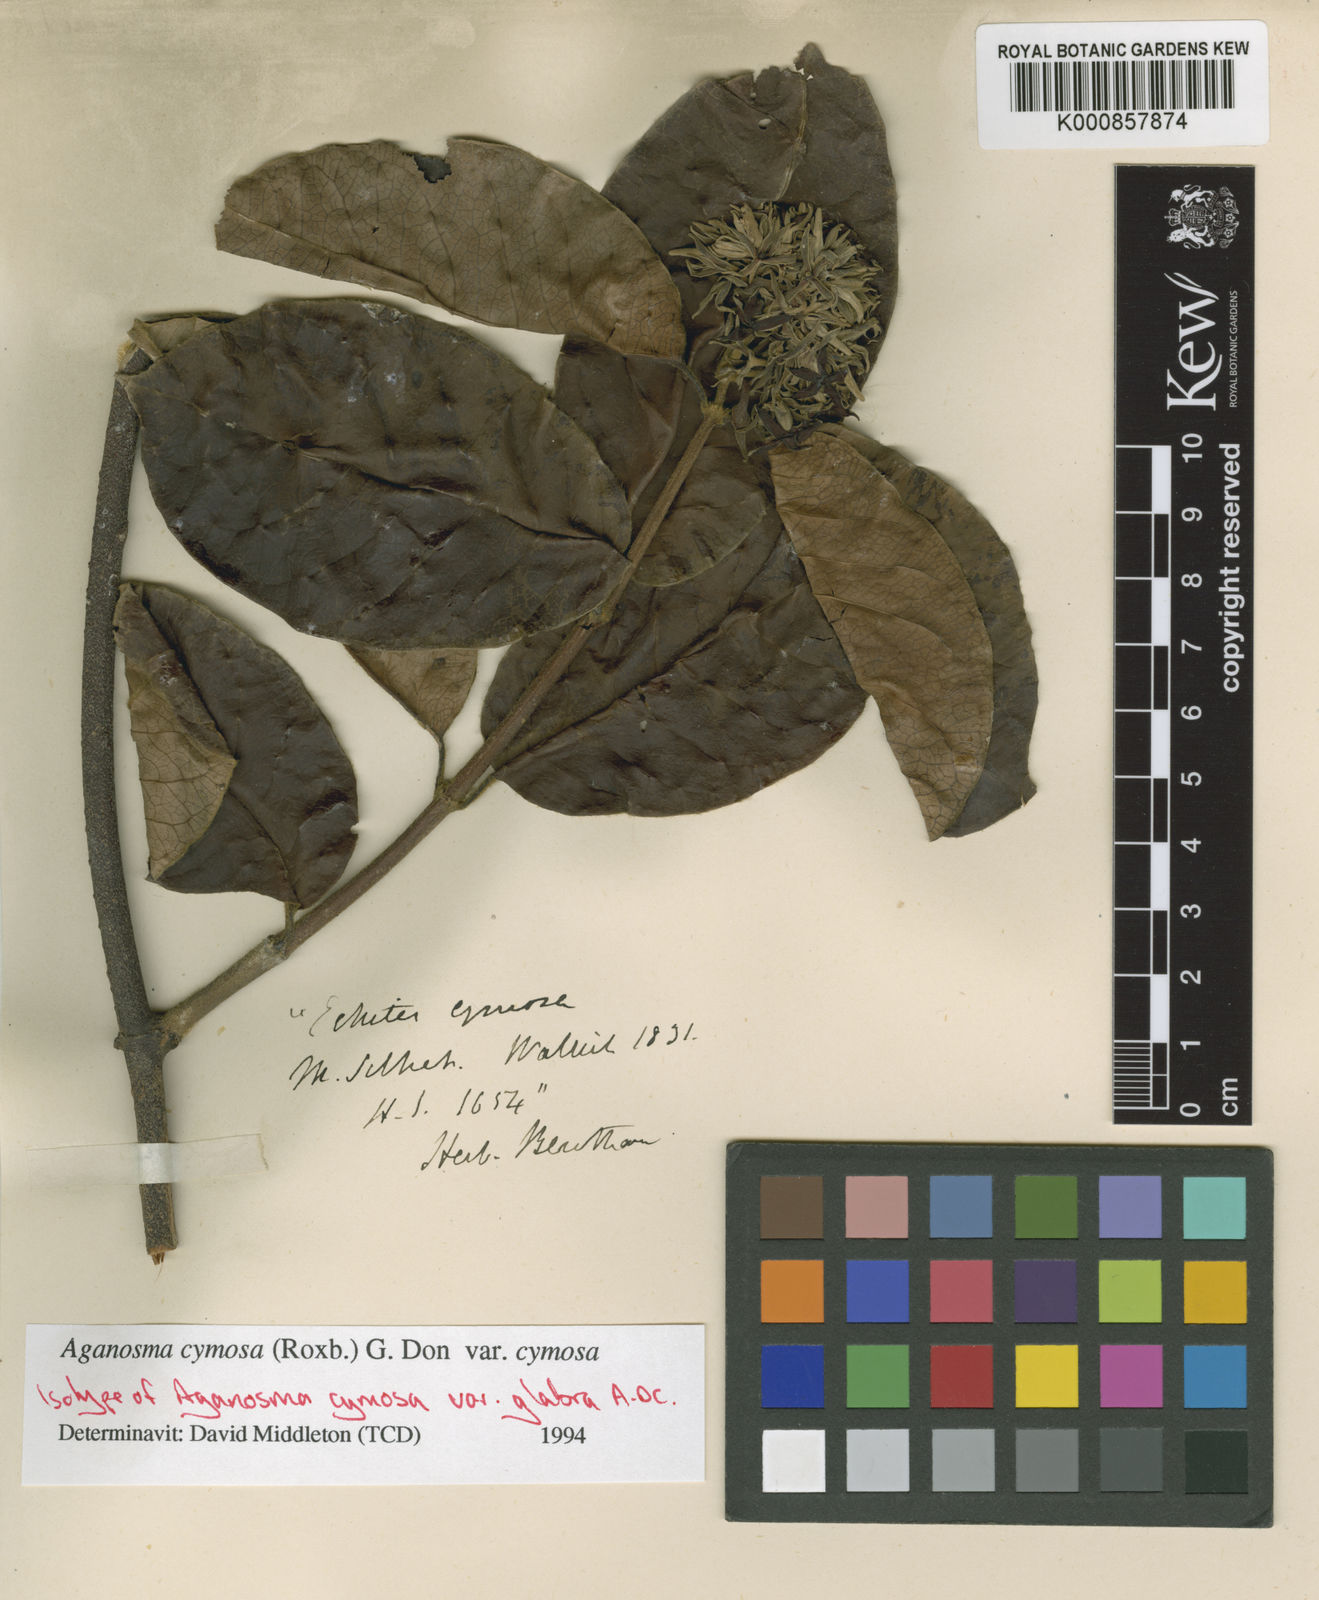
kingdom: Plantae
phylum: Tracheophyta
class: Magnoliopsida
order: Gentianales
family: Apocynaceae
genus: Aganosma
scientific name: Aganosma cymosa
